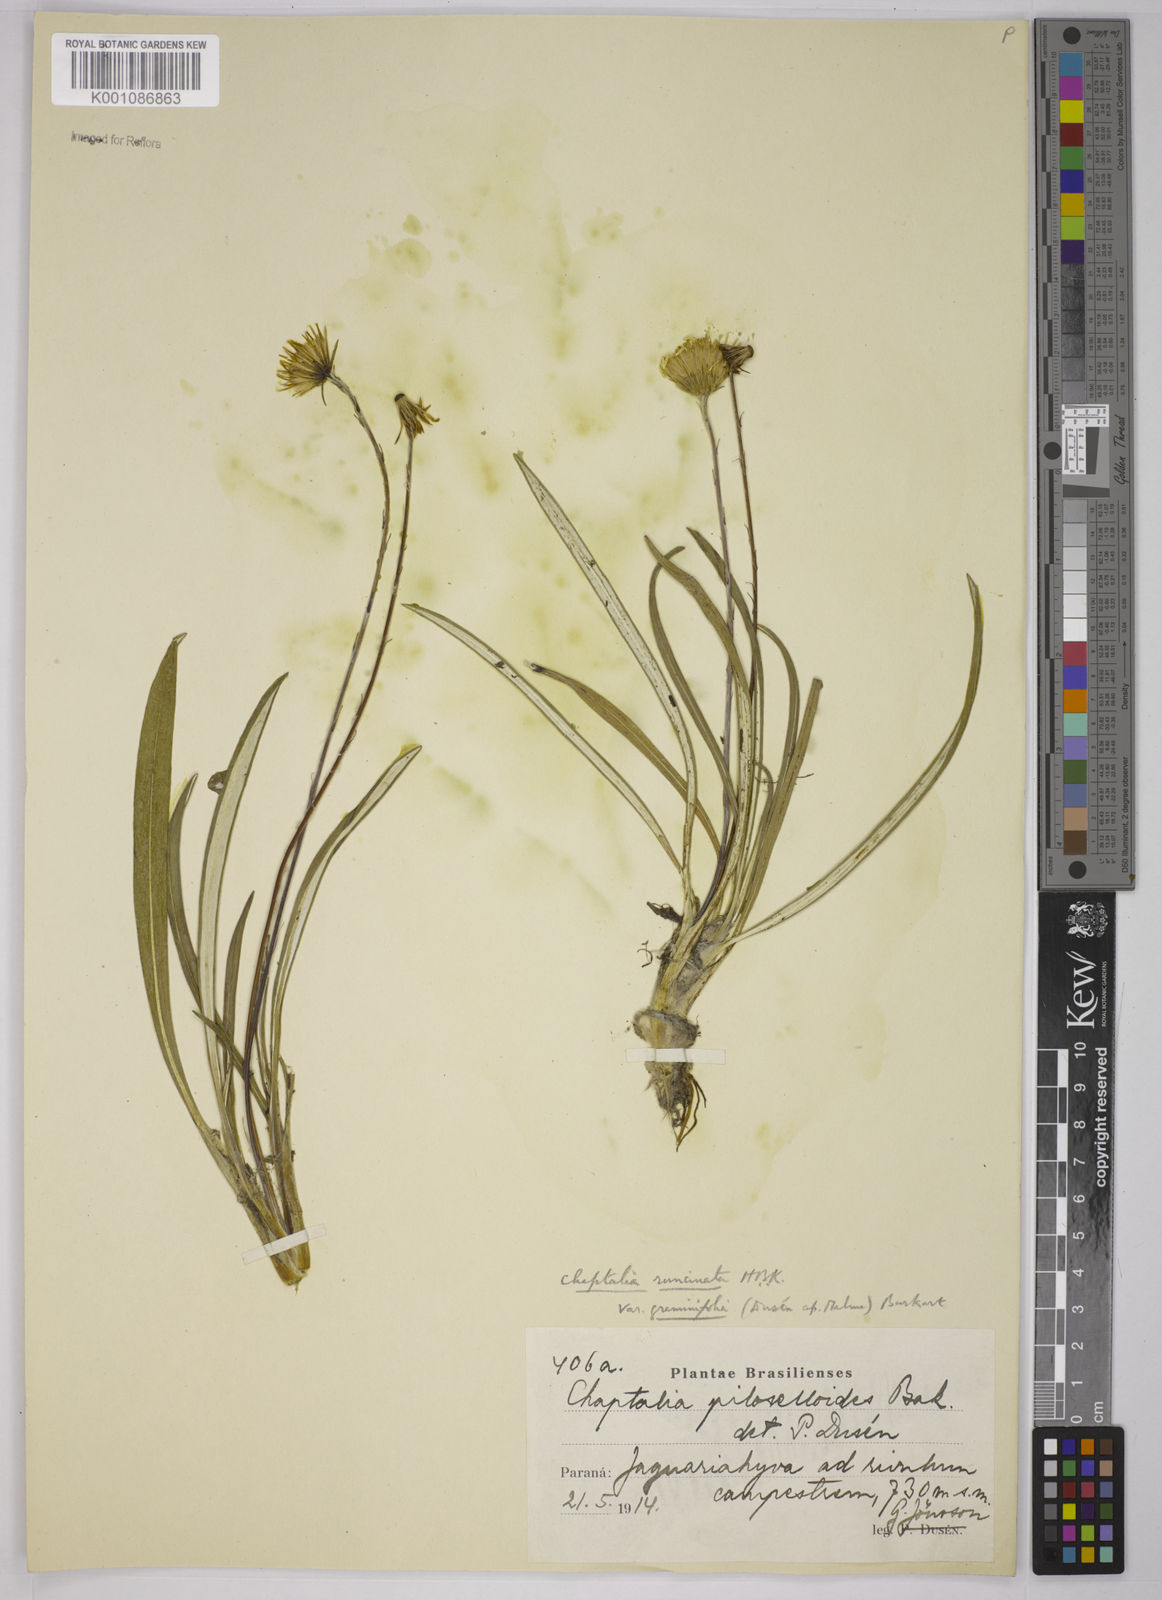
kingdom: Plantae
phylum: Tracheophyta
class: Magnoliopsida
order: Asterales
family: Asteraceae
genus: Chaptalia
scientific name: Chaptalia albicans
